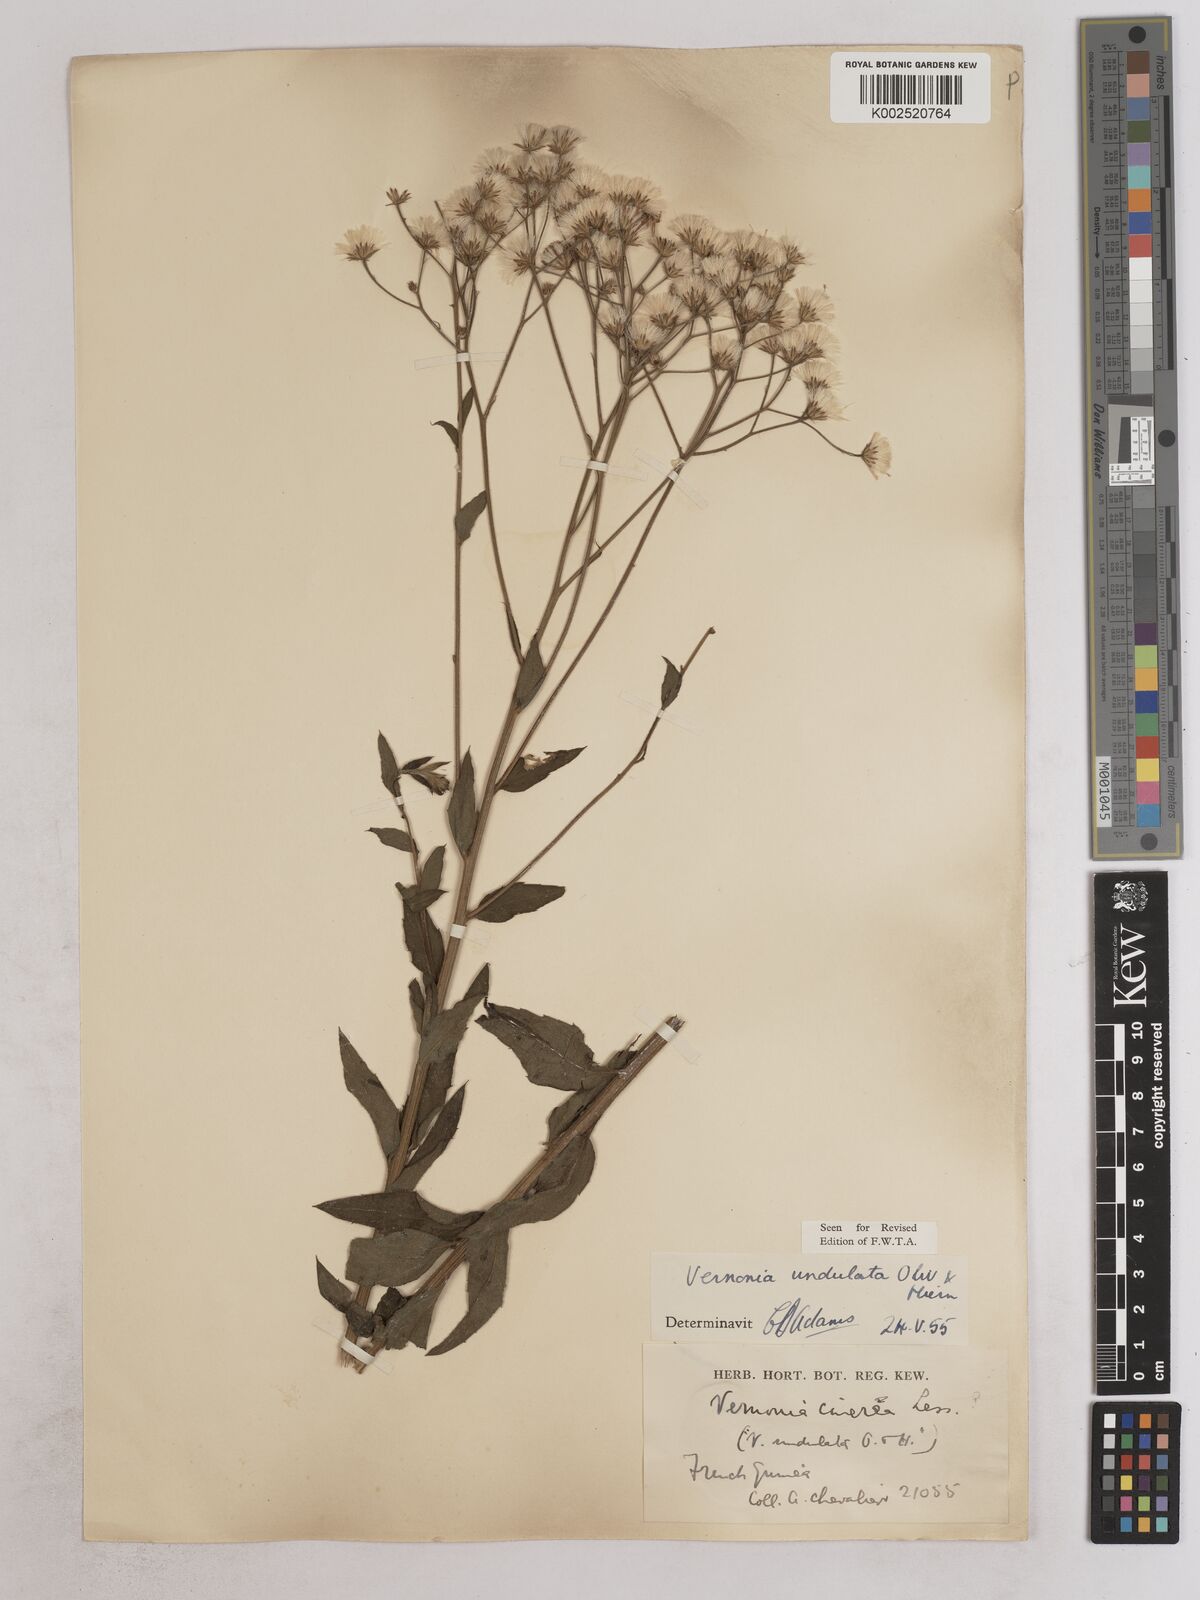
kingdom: Plantae
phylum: Tracheophyta
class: Magnoliopsida
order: Asterales
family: Asteraceae
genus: Vernonia
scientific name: Vernonia golungensis
